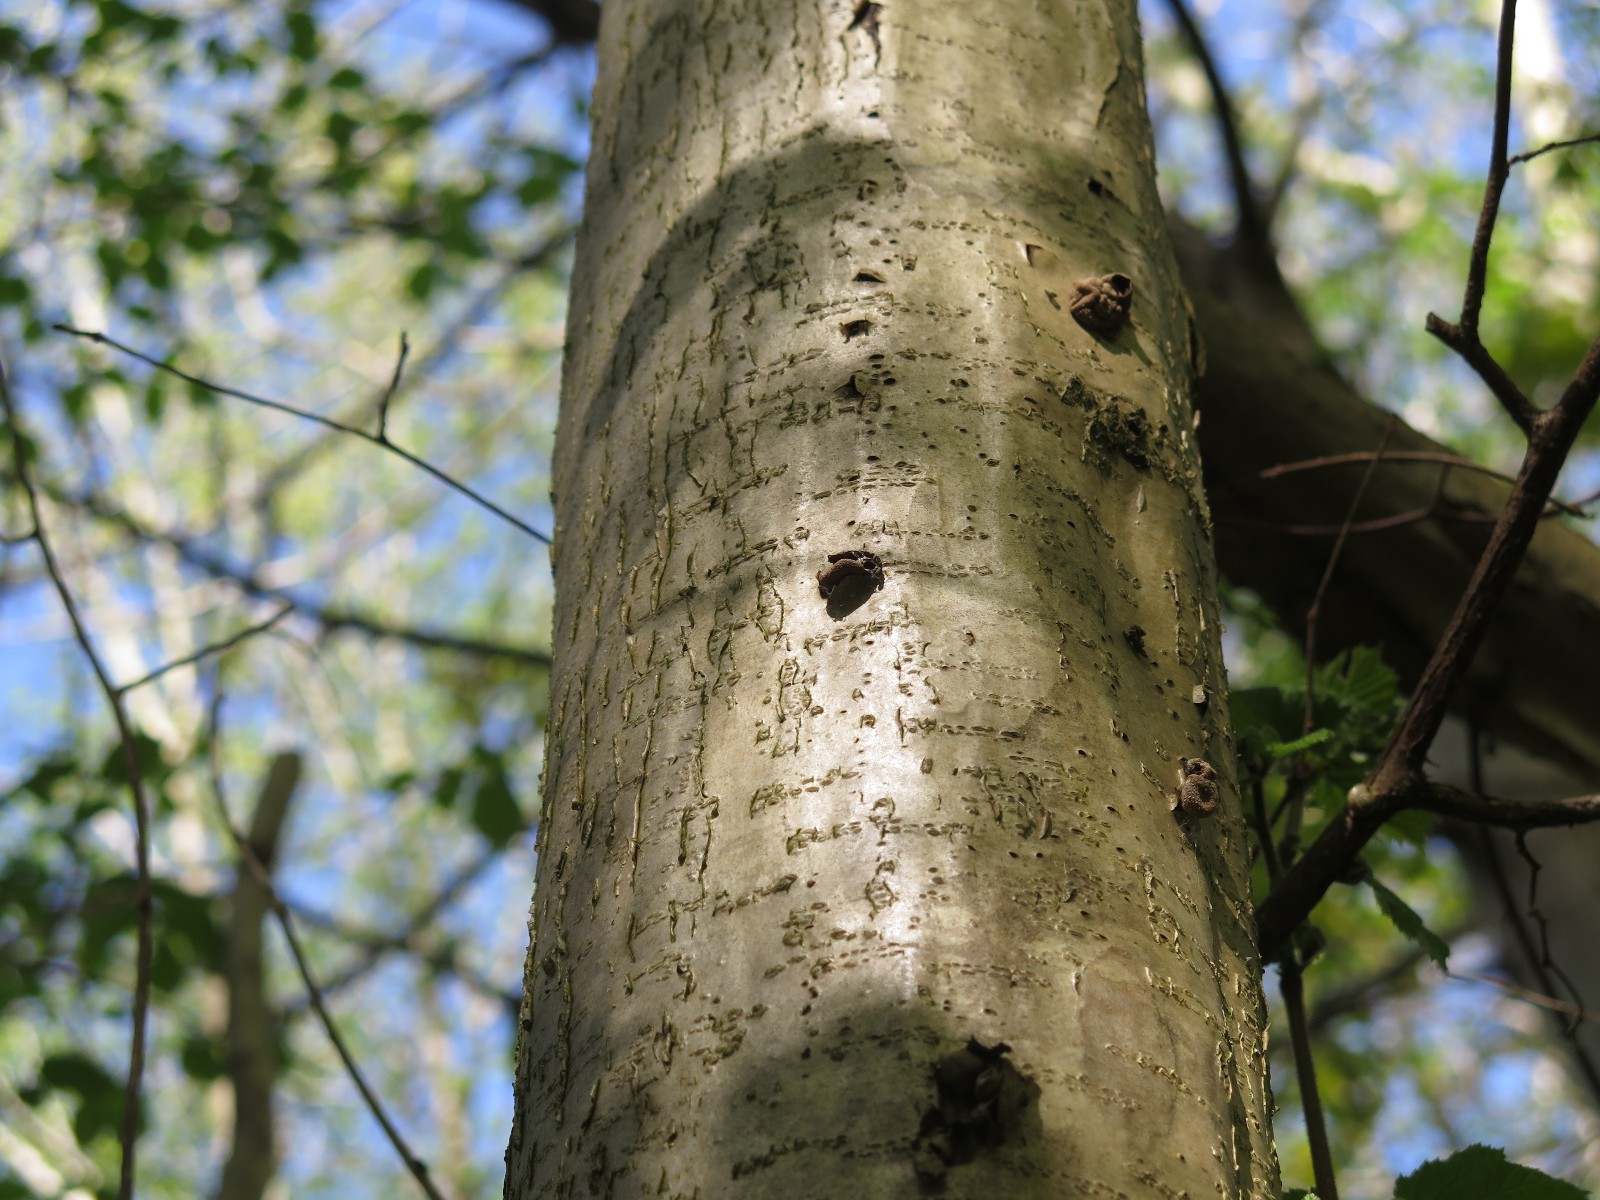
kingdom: Fungi
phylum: Ascomycota
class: Leotiomycetes
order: Helotiales
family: Cenangiaceae
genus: Encoelia
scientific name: Encoelia furfuracea
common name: hassel-læderskive
